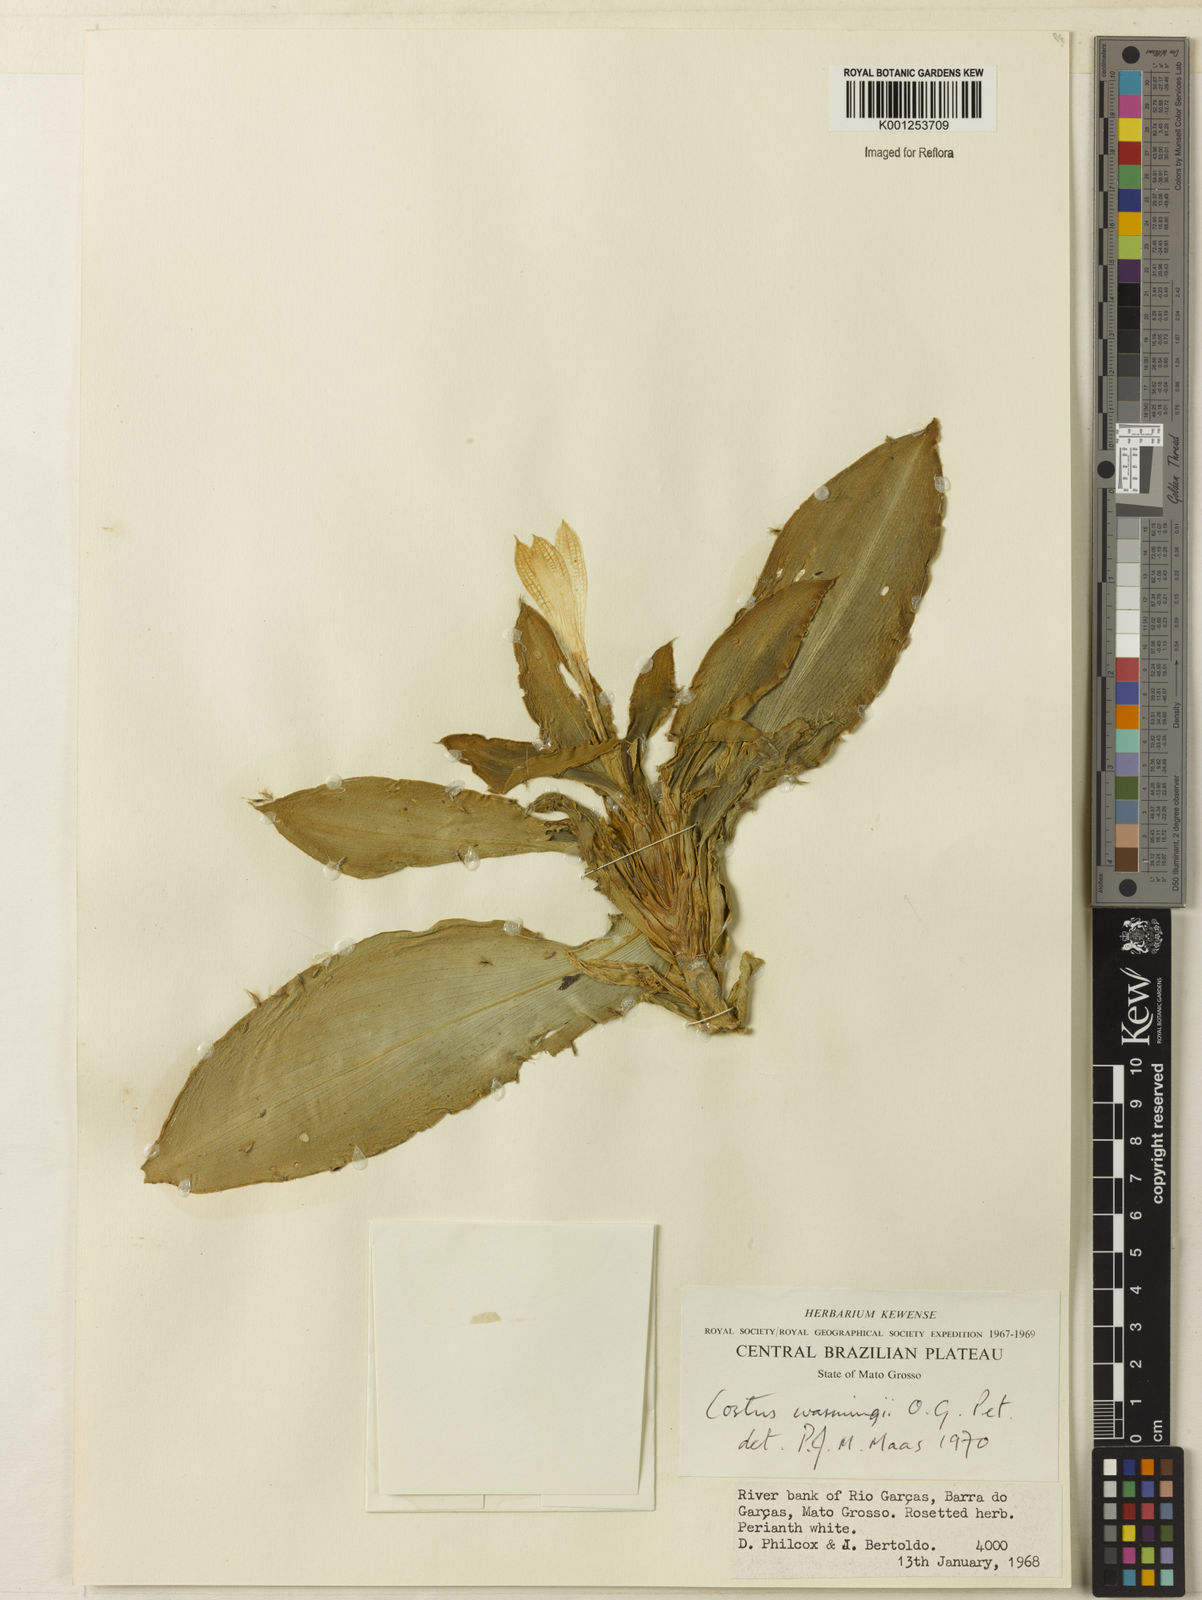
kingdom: Plantae
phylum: Tracheophyta
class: Liliopsida
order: Zingiberales
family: Costaceae
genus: Chamaecostus
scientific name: Chamaecostus subsessilis
